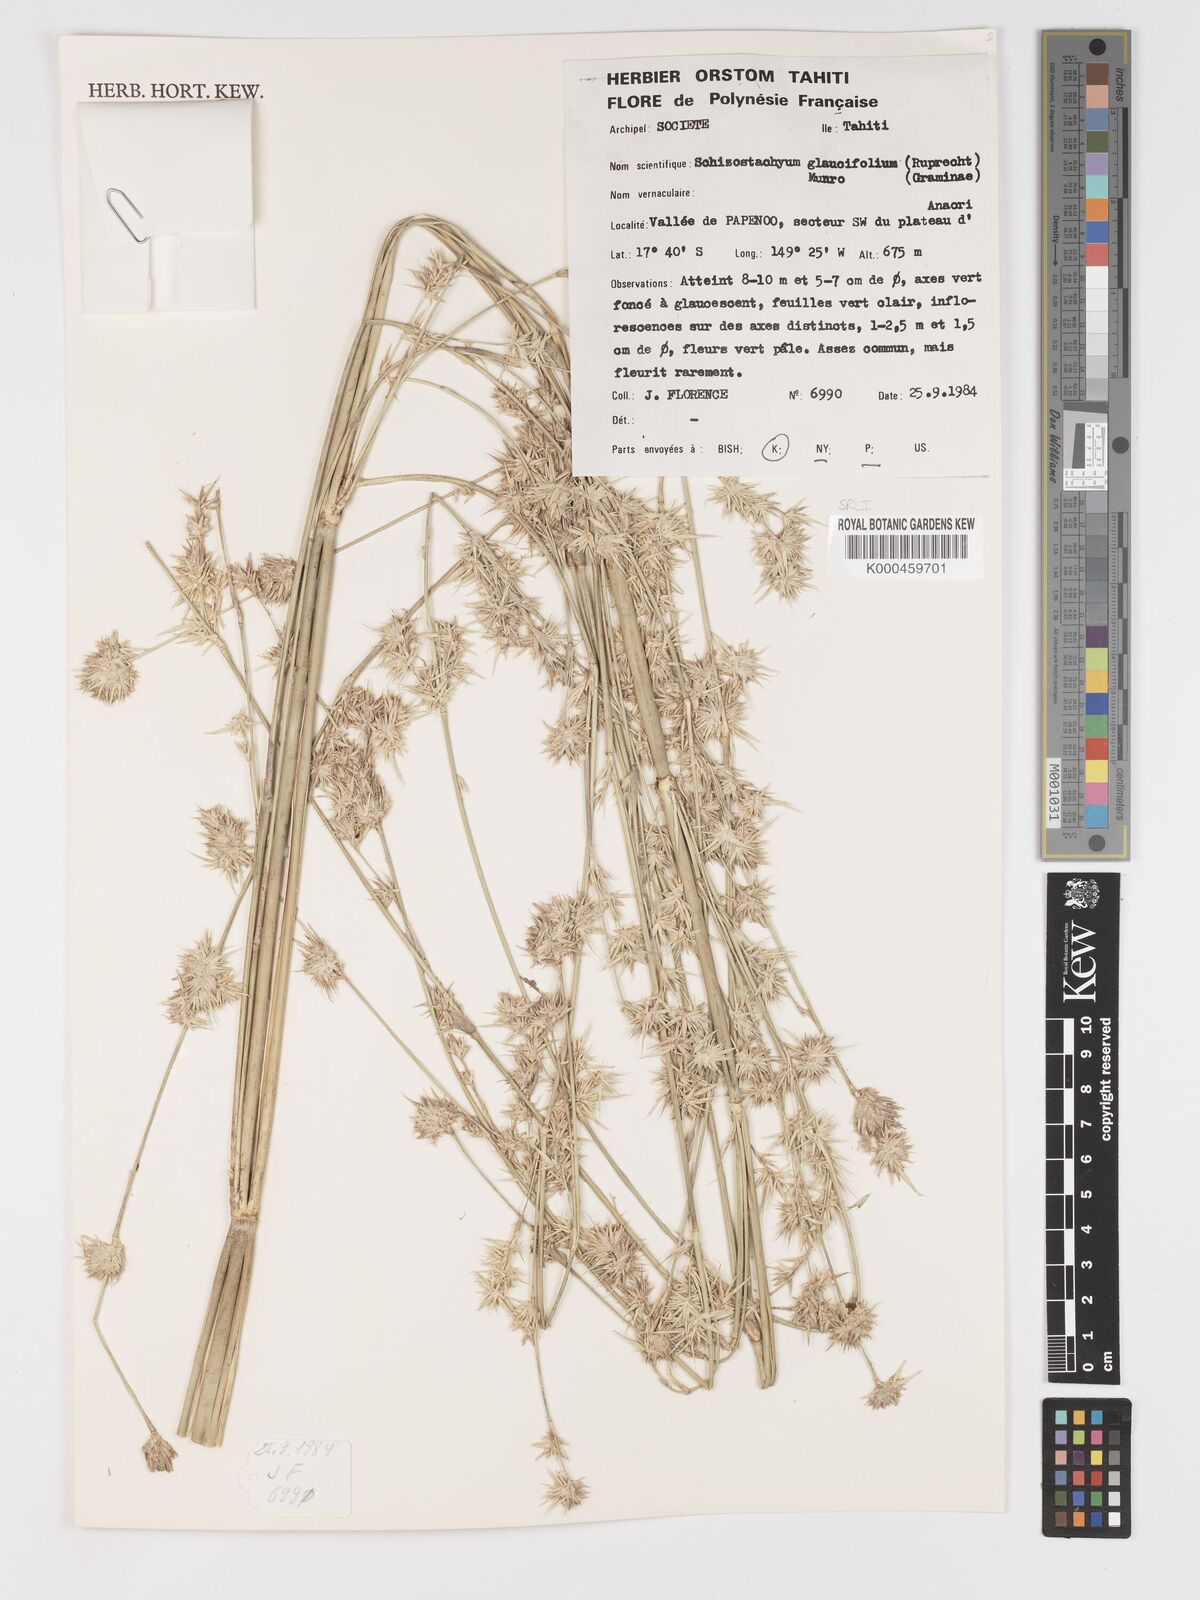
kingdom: Plantae
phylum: Tracheophyta
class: Liliopsida
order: Poales
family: Poaceae
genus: Schizostachyum
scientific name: Schizostachyum glaucifolium
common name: Polynesian 'ohe
